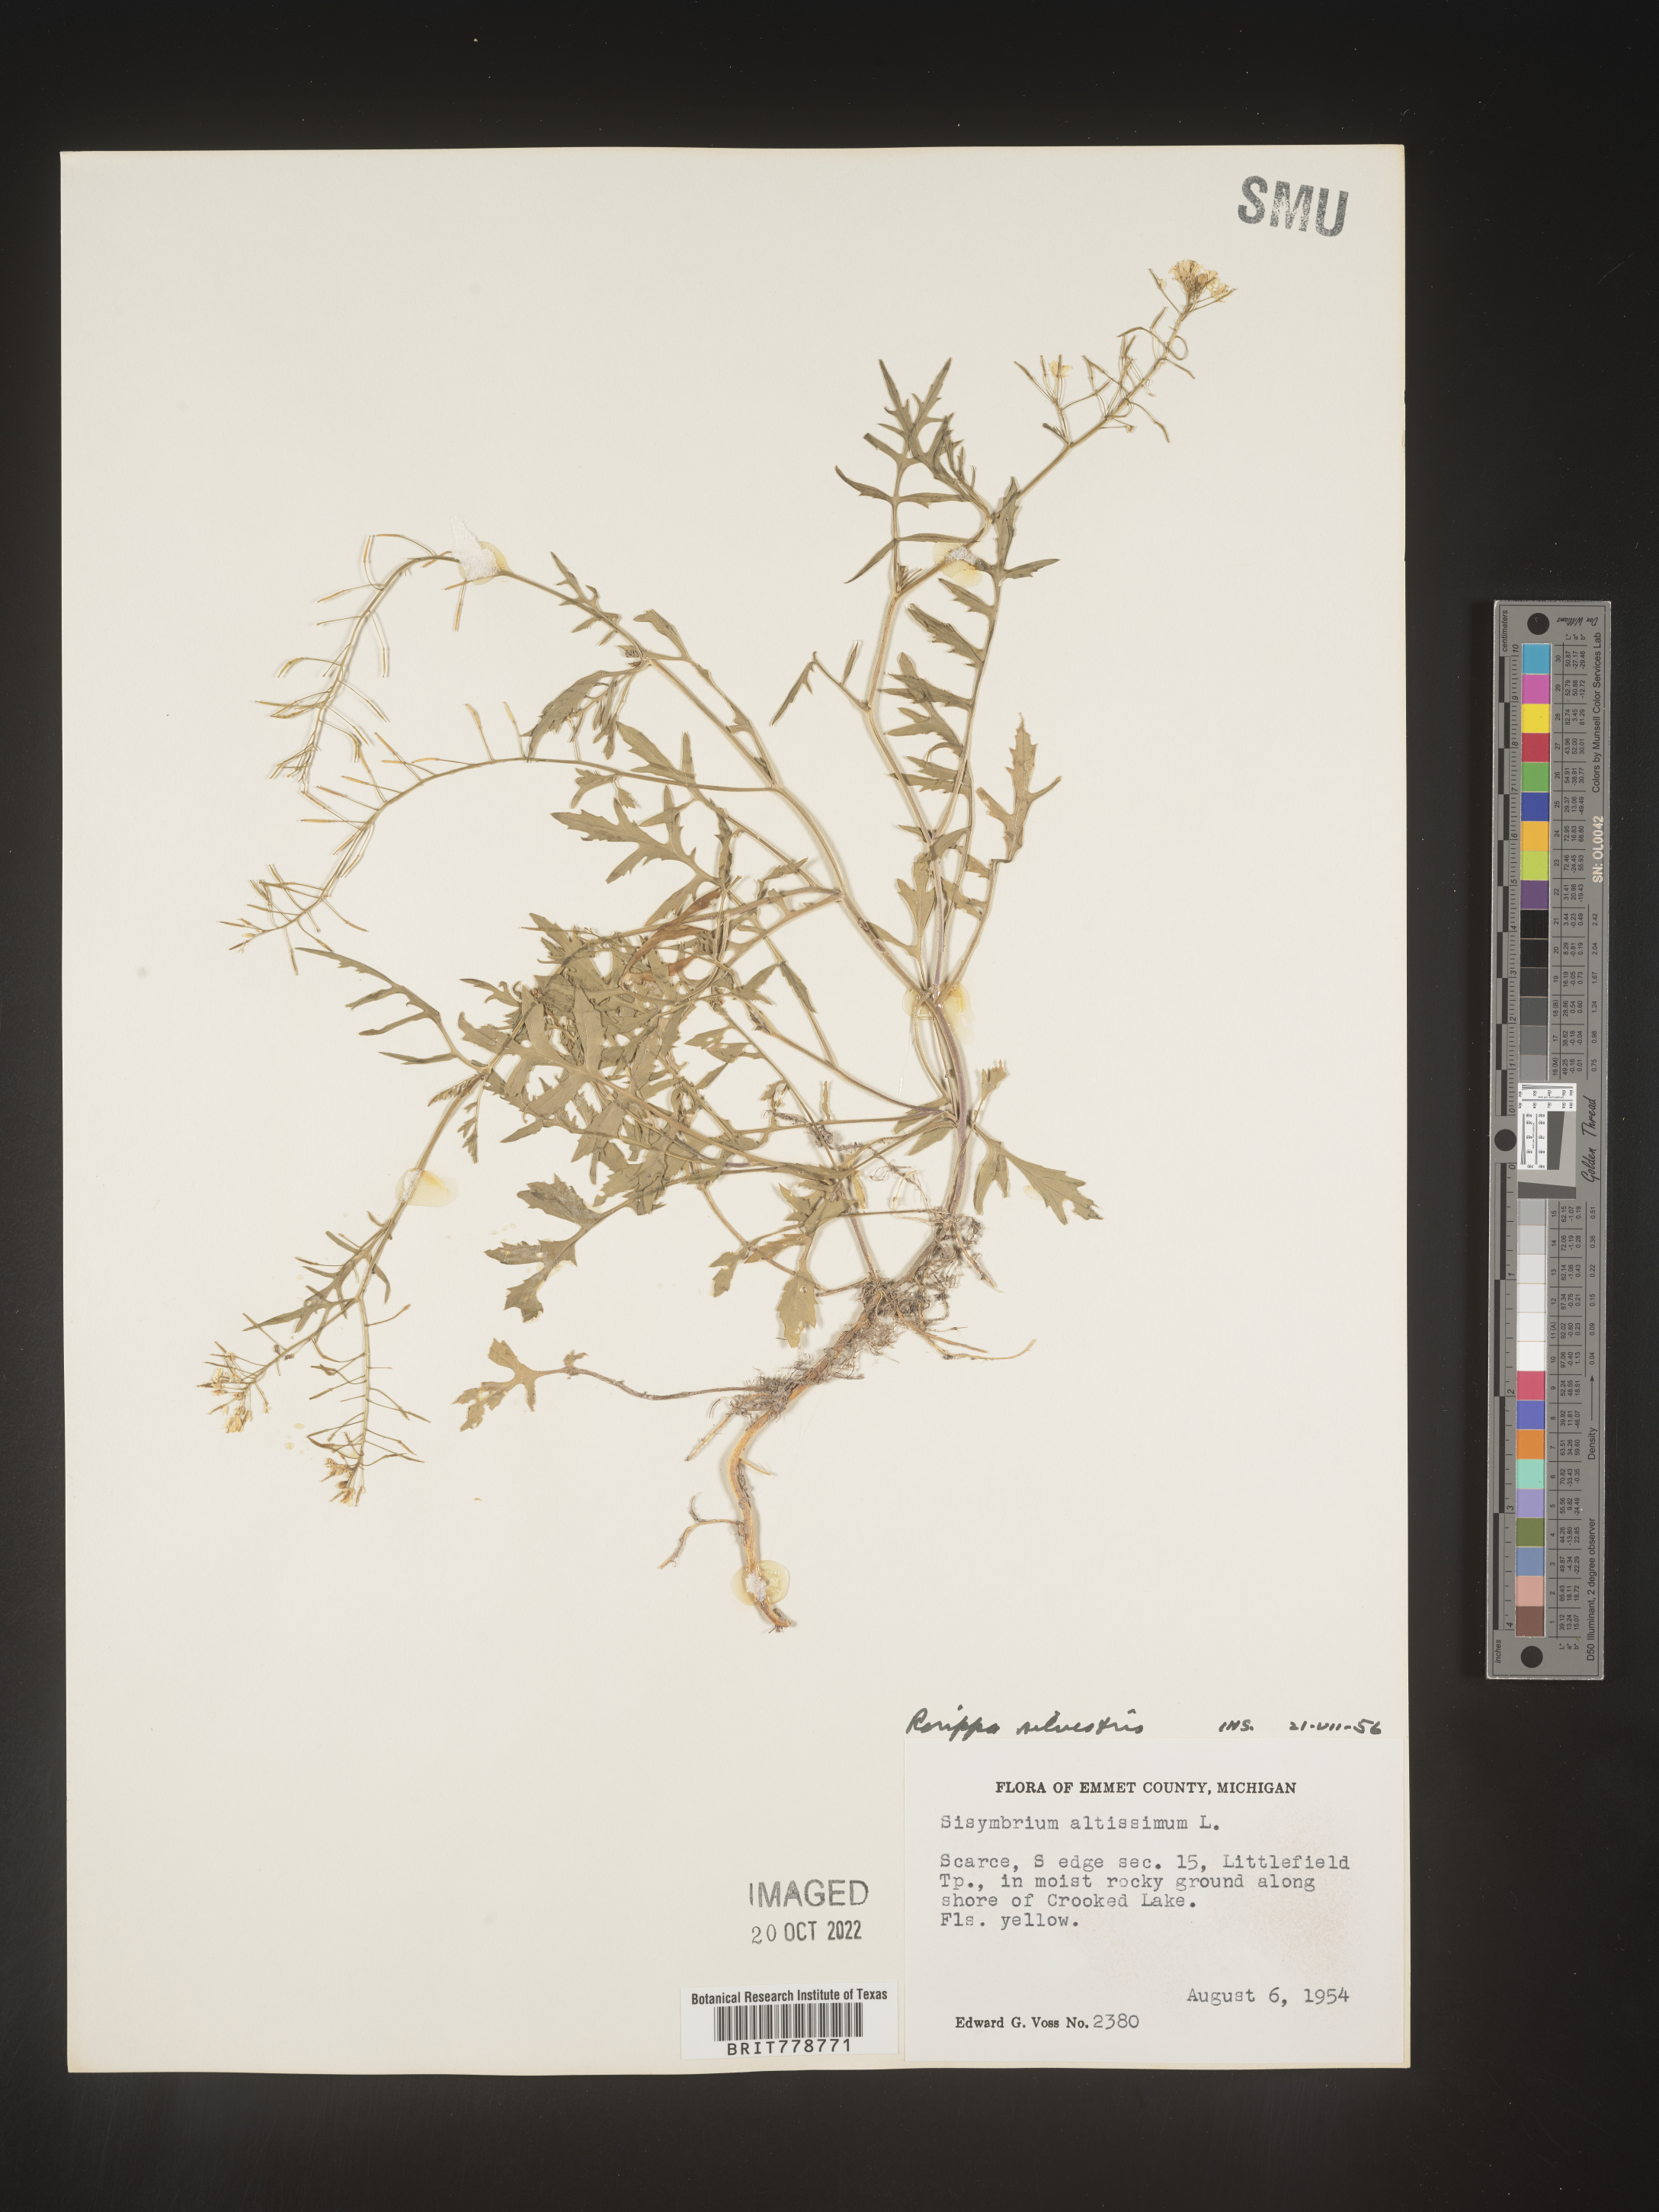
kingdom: Plantae
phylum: Tracheophyta
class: Magnoliopsida
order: Brassicales
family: Brassicaceae
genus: Rorippa
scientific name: Rorippa sylvestris
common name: Creeping yellowcress
